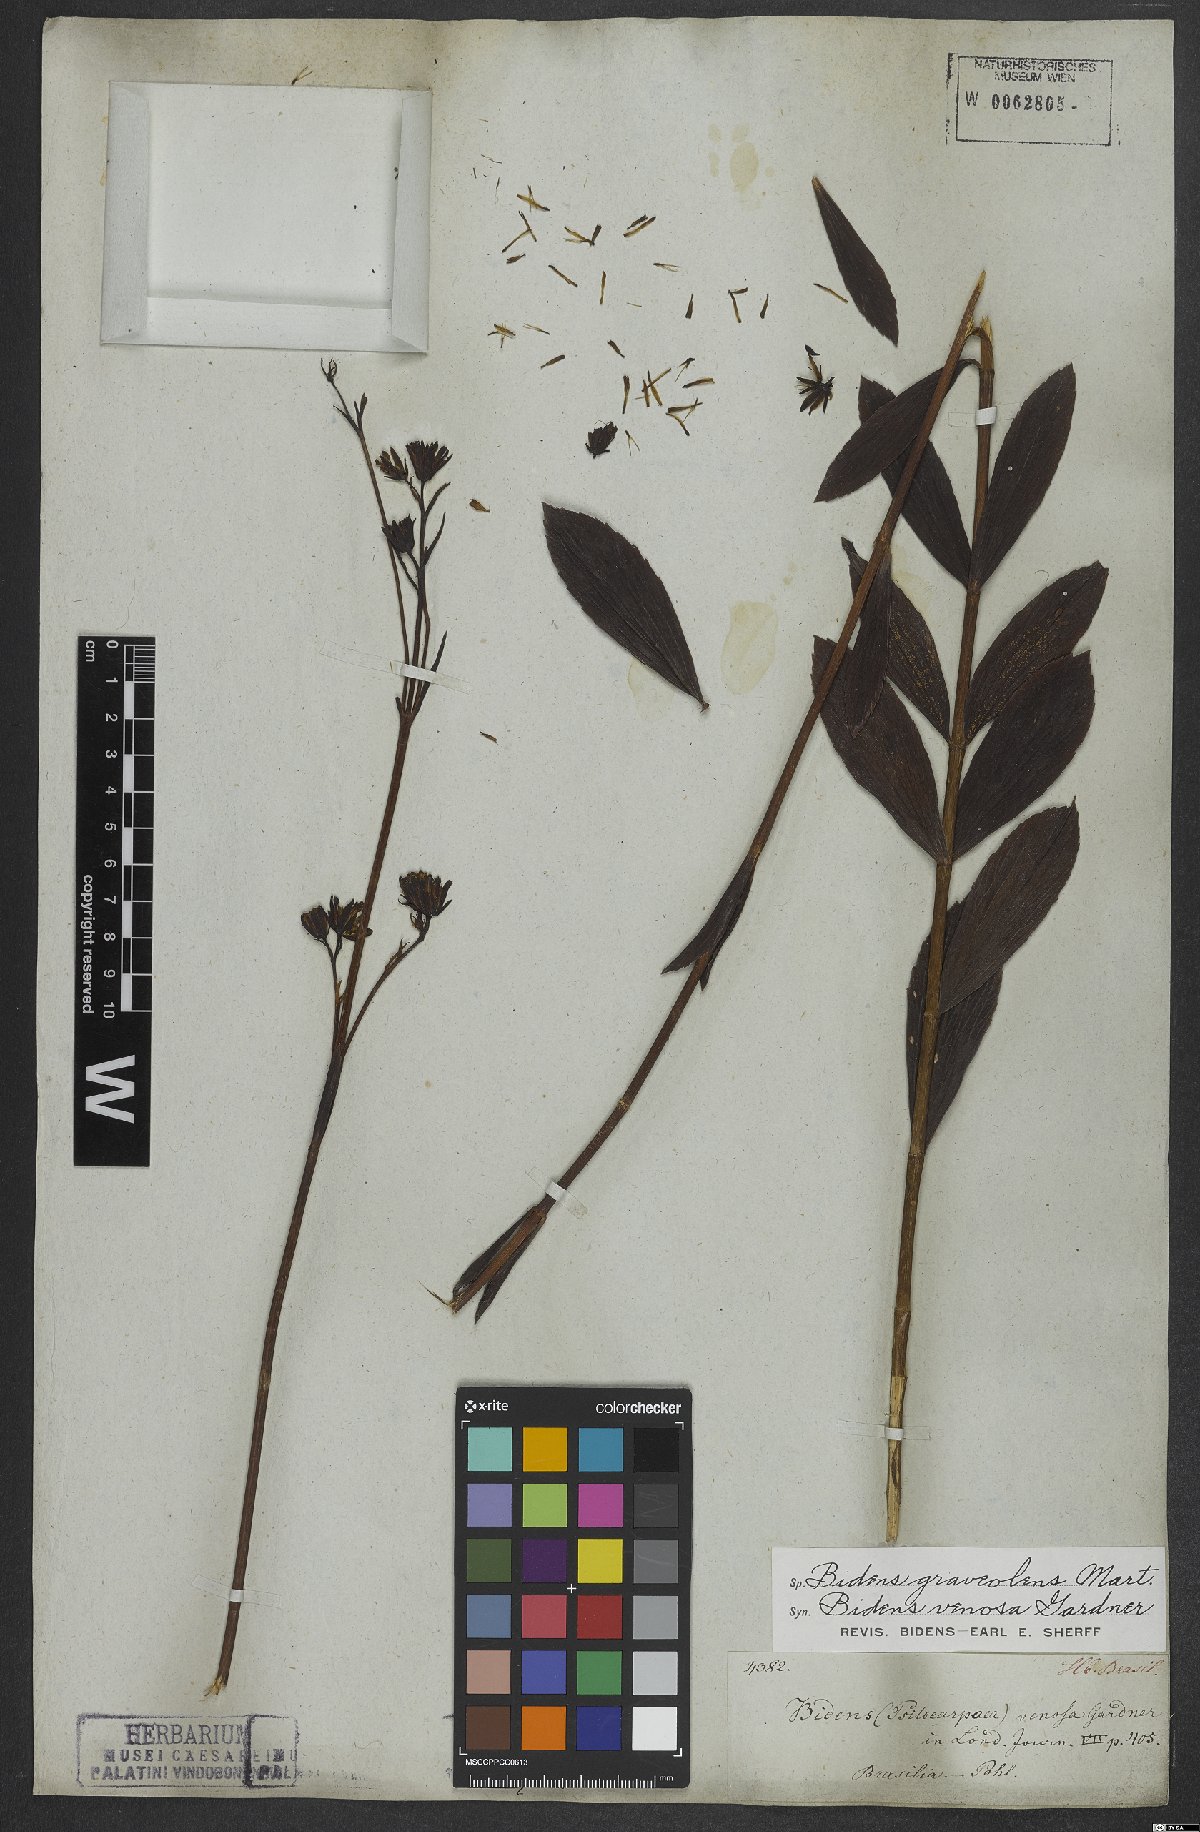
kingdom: Plantae
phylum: Tracheophyta
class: Magnoliopsida
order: Asterales
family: Asteraceae
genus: Bidens
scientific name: Bidens graveolens
